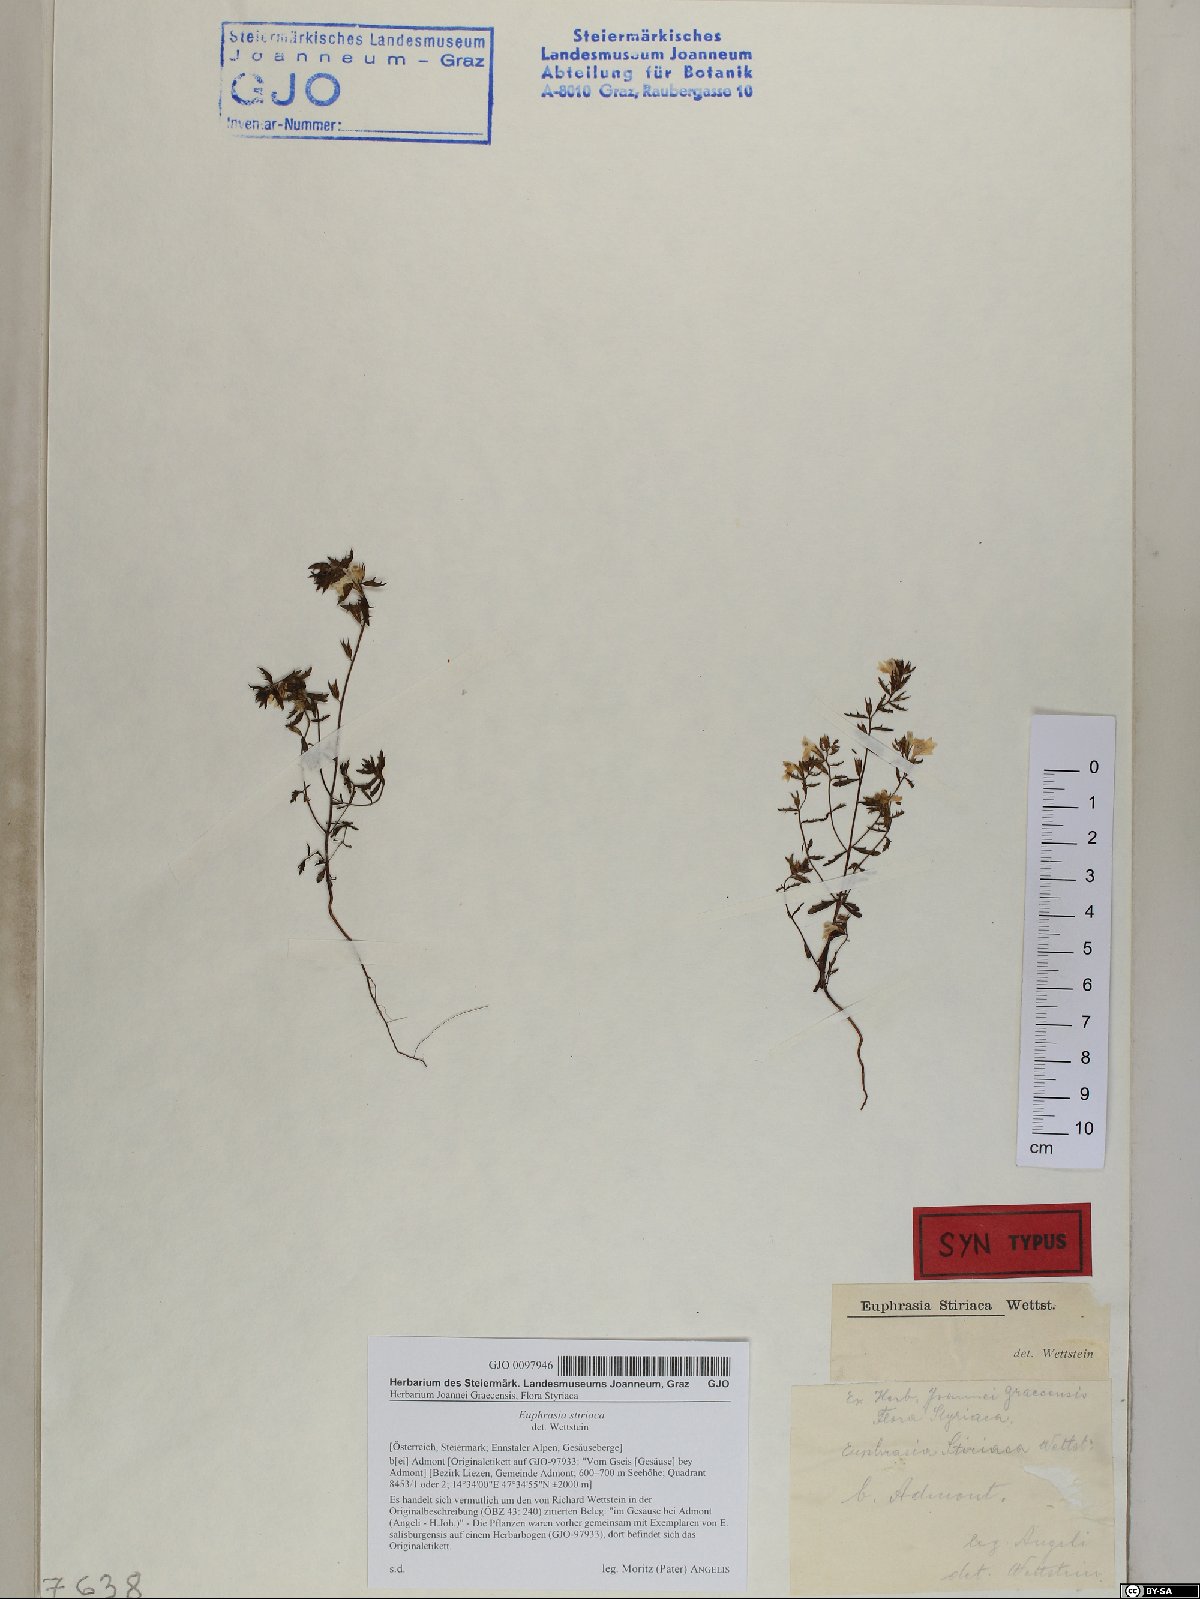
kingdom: Plantae
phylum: Tracheophyta
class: Magnoliopsida
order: Lamiales
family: Orobanchaceae
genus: Euphrasia
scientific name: Euphrasia cuspidata
